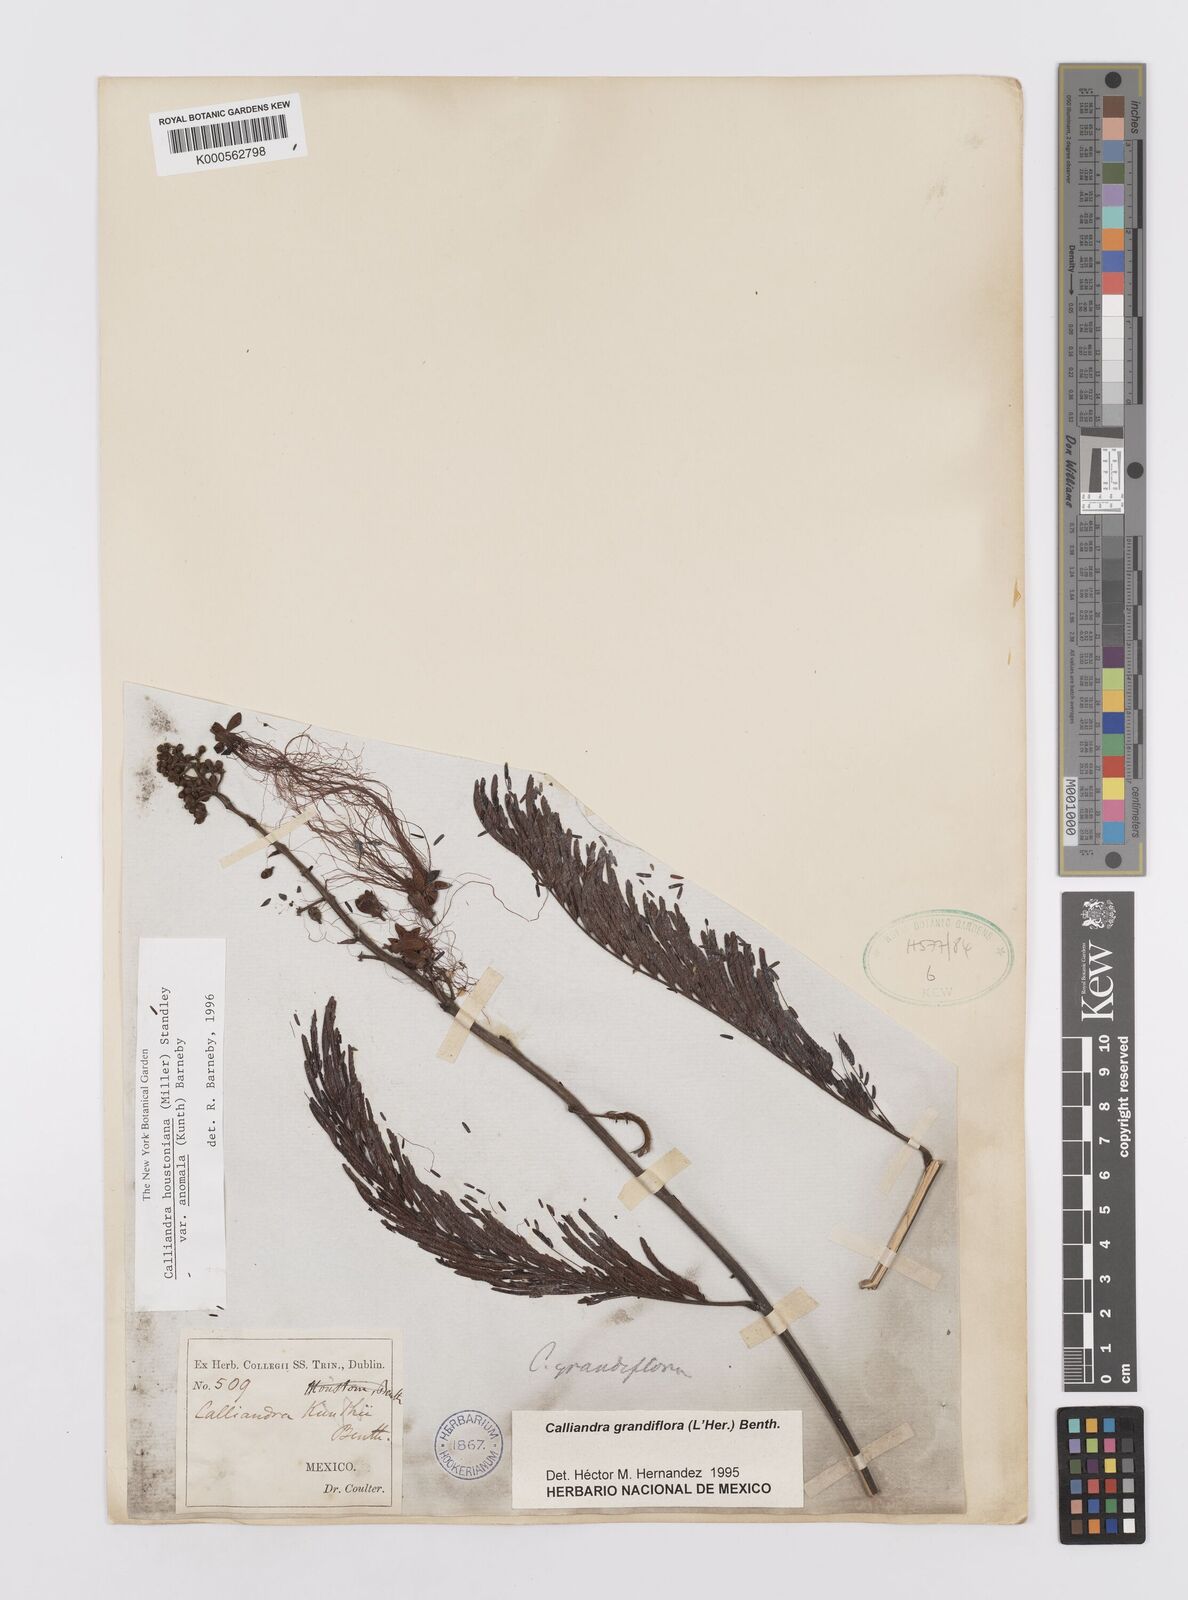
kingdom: Plantae
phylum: Tracheophyta
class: Magnoliopsida
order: Fabales
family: Fabaceae
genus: Calliandra
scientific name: Calliandra houstoniana
